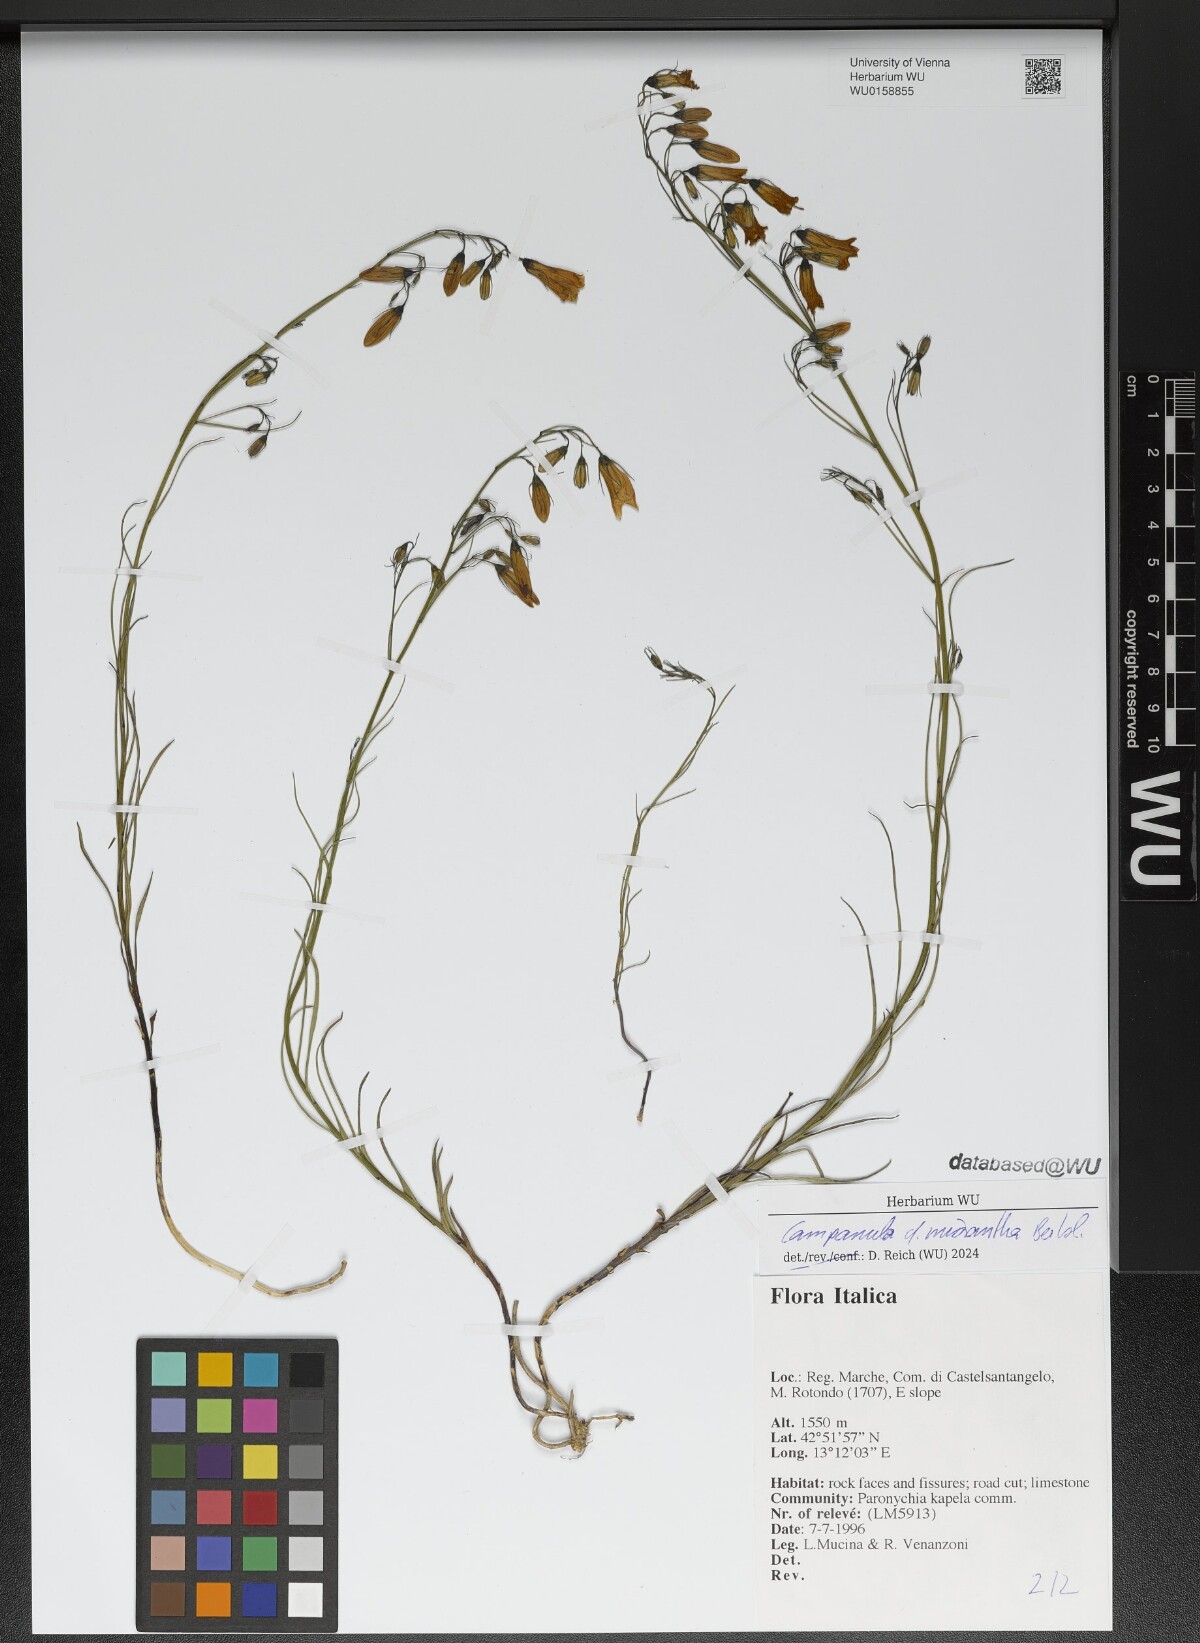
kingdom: Plantae
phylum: Tracheophyta
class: Magnoliopsida
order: Asterales
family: Campanulaceae
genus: Campanula
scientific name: Campanula micrantha
